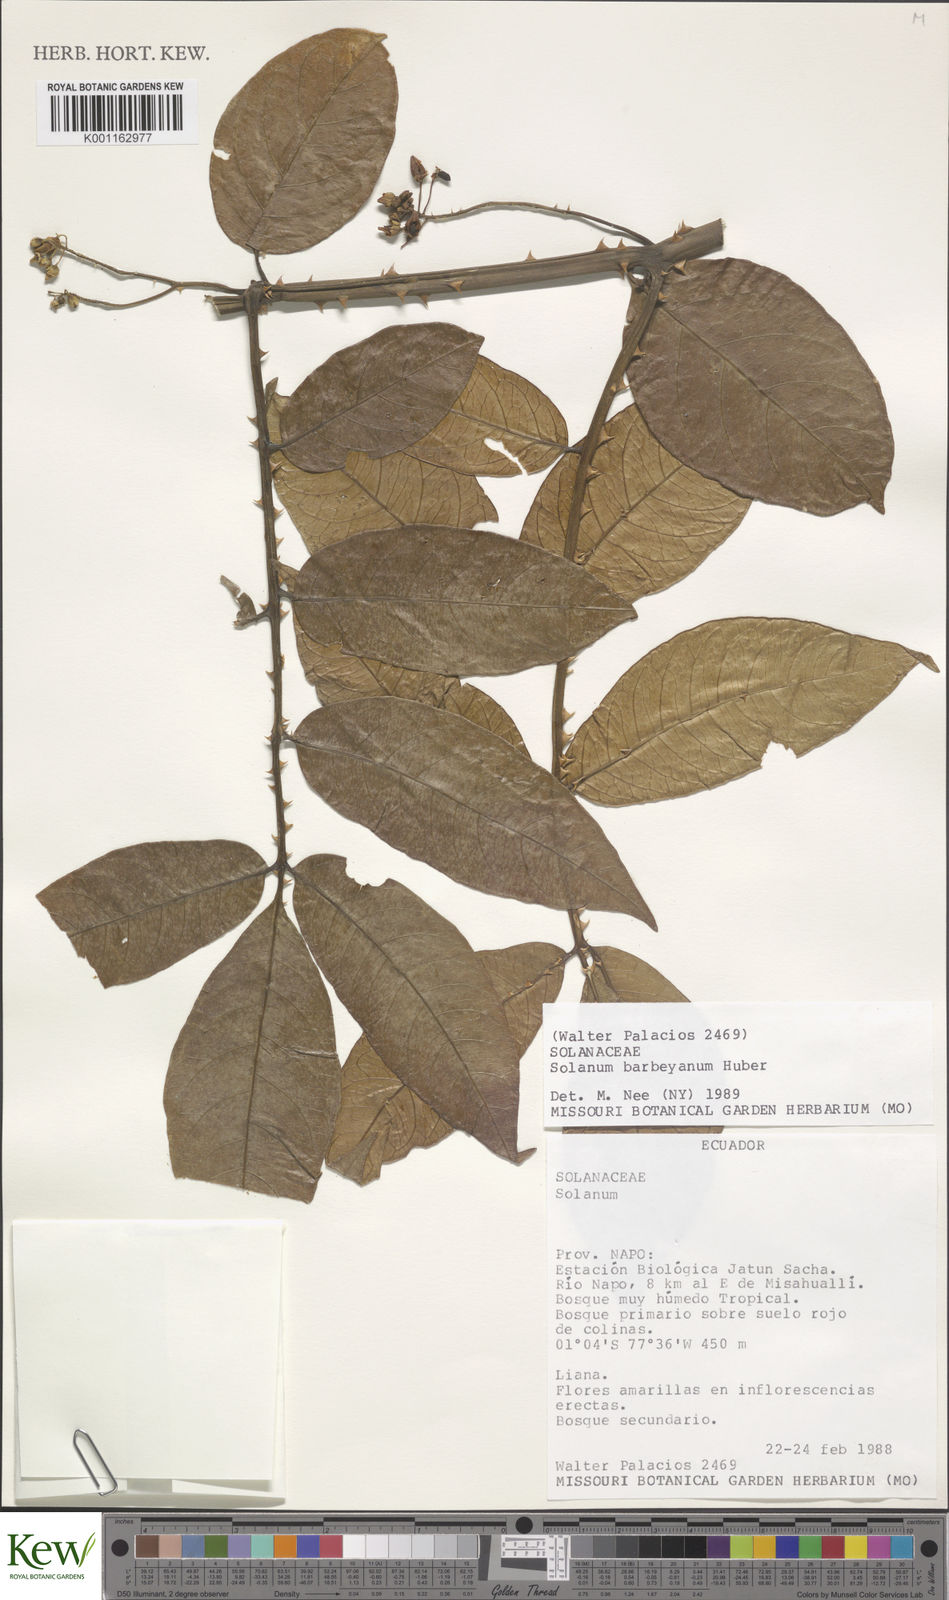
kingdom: Plantae
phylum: Tracheophyta
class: Magnoliopsida
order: Solanales
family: Solanaceae
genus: Solanum
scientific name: Solanum barbeyanum
